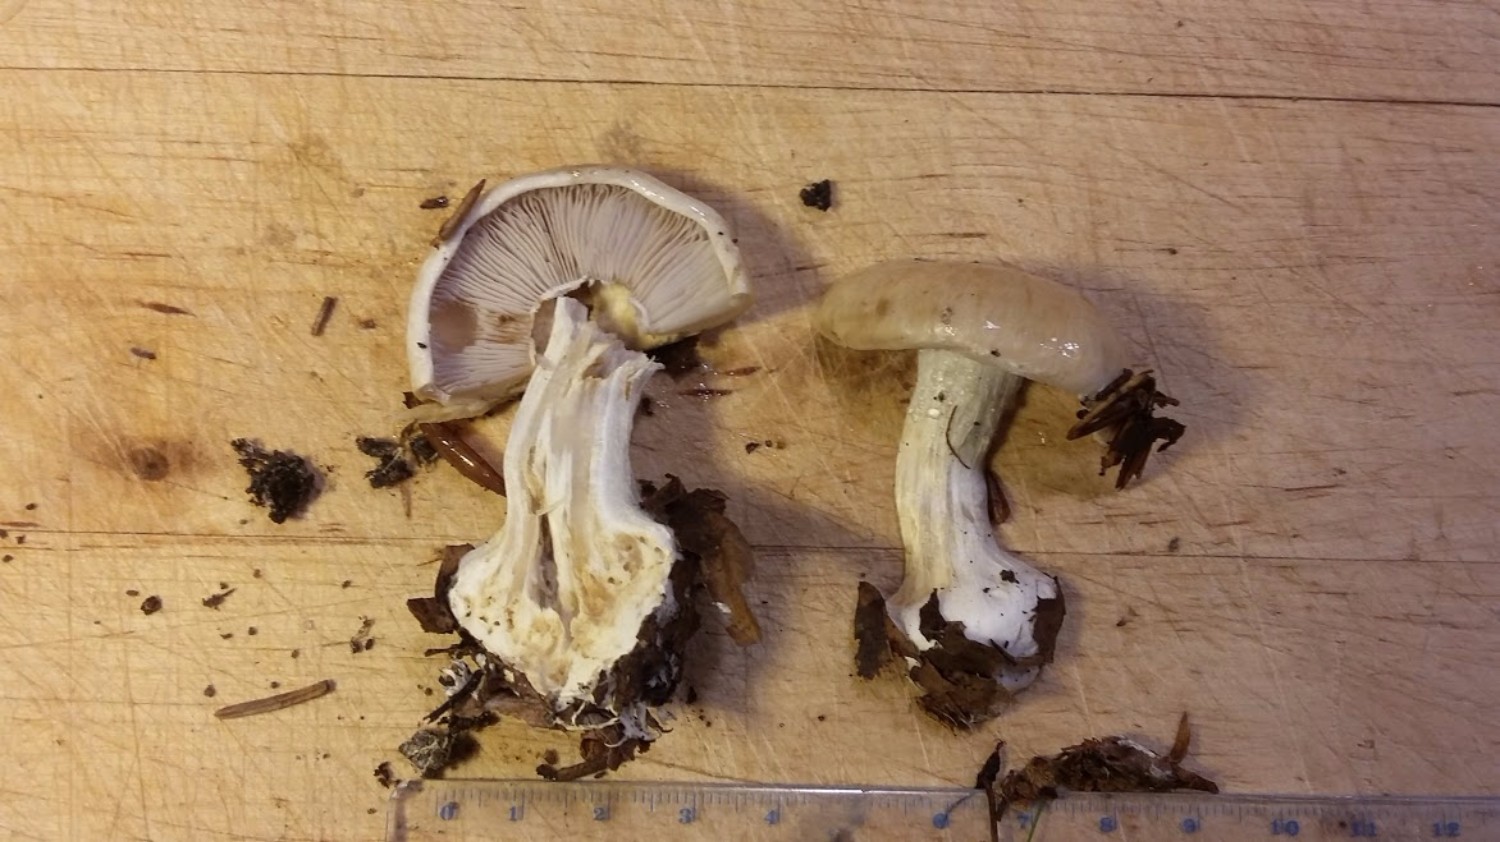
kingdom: Fungi
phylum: Basidiomycota
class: Agaricomycetes
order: Agaricales
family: Cortinariaceae
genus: Cortinarius
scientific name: Cortinarius
